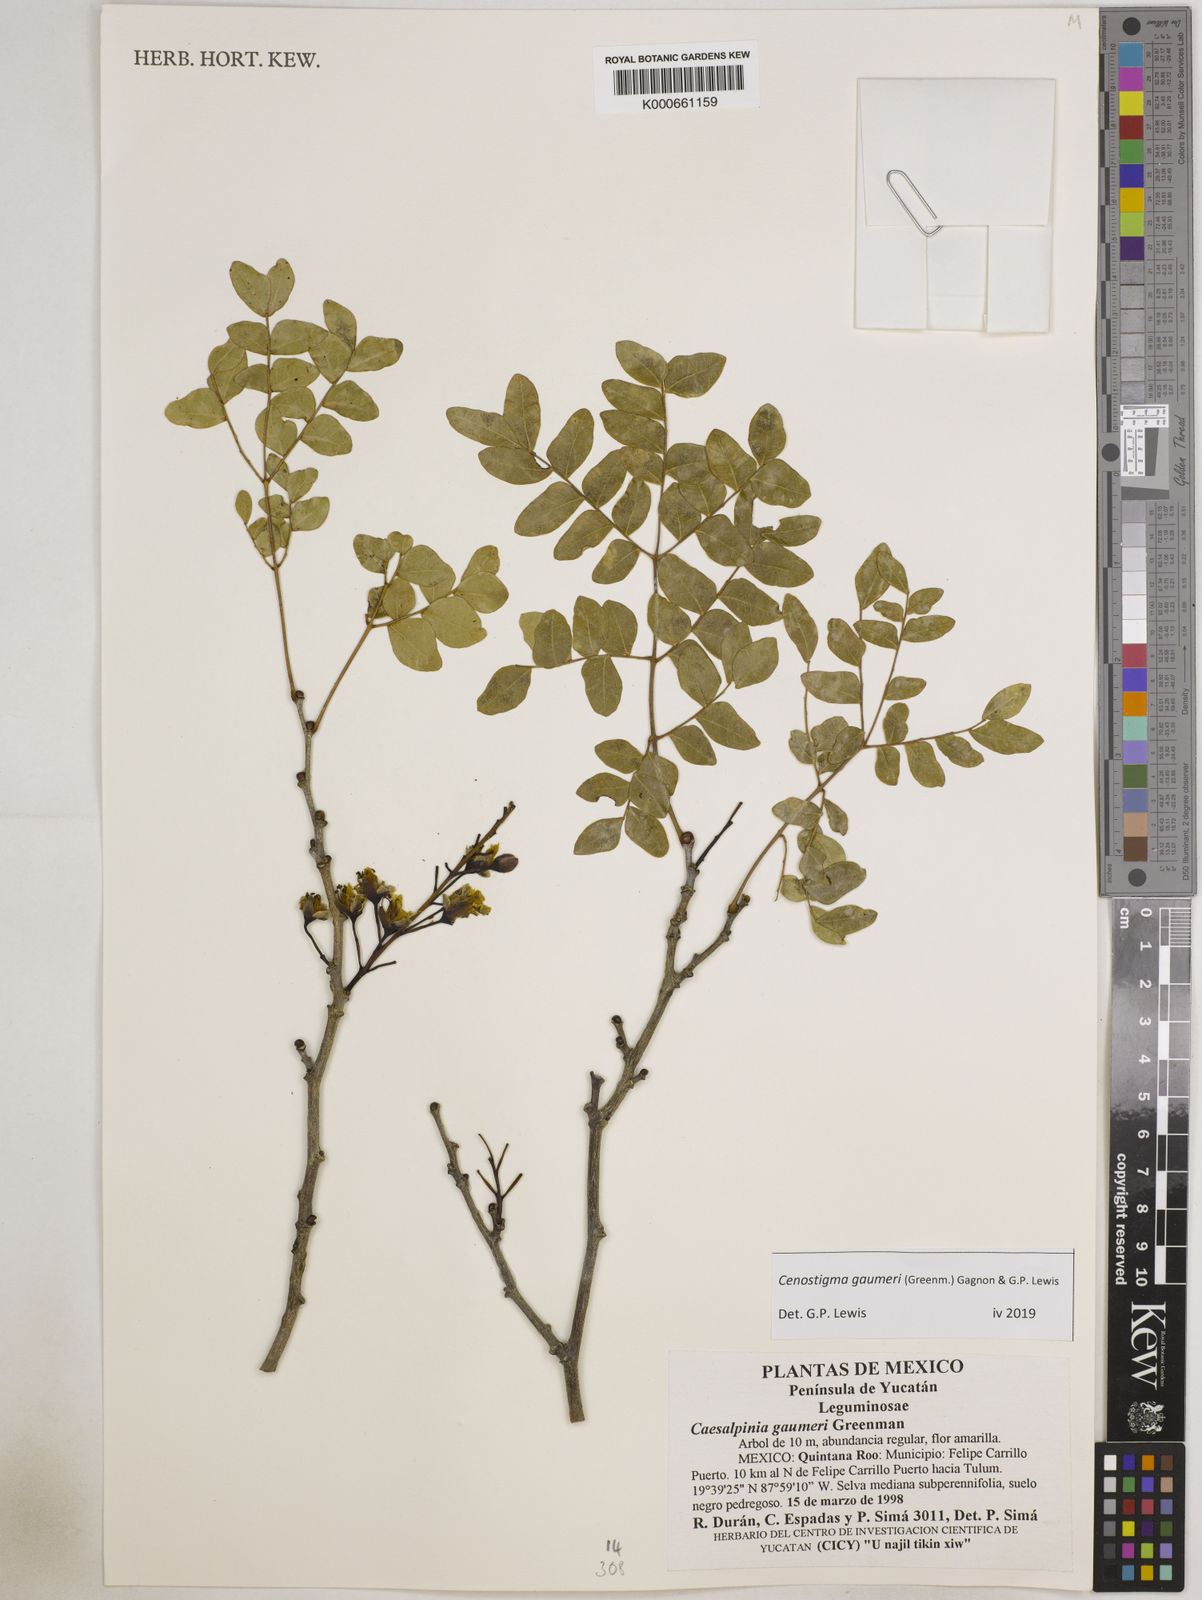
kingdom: Plantae
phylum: Tracheophyta
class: Magnoliopsida
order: Fabales
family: Fabaceae
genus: Cenostigma
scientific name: Cenostigma gaumeri
